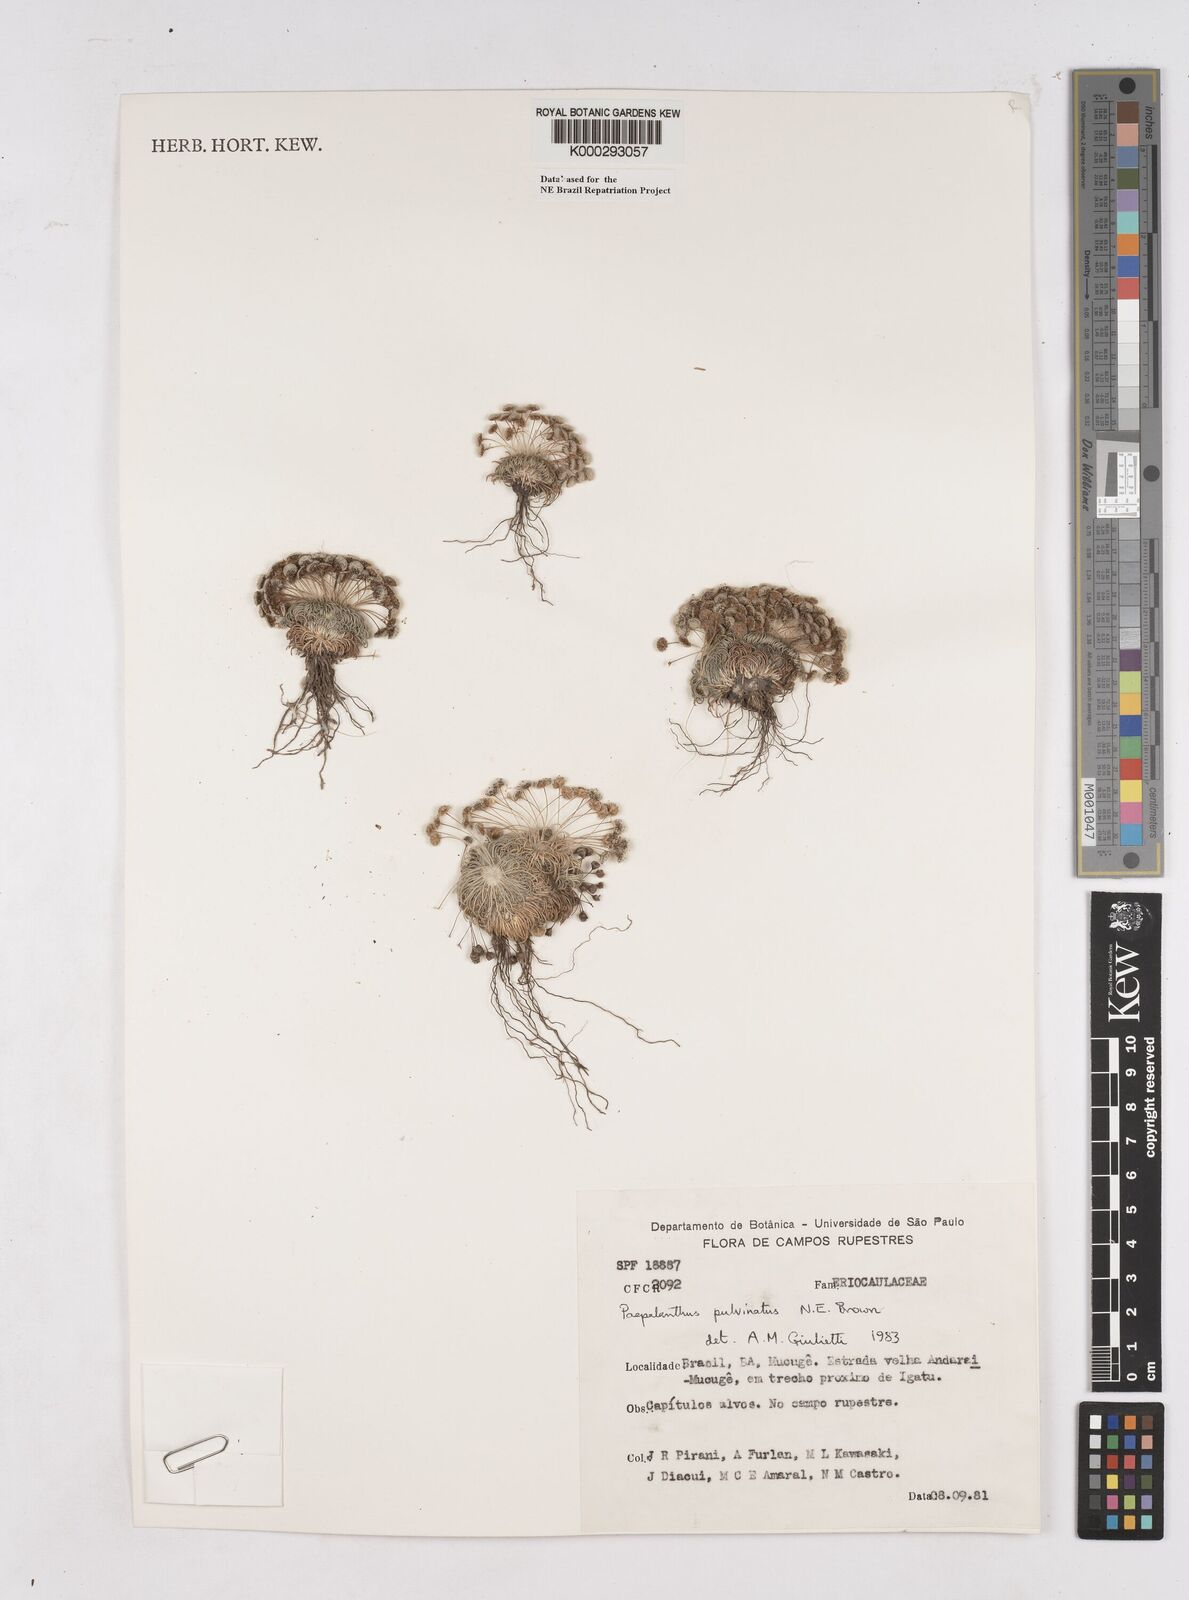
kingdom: Plantae
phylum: Tracheophyta
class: Liliopsida
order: Poales
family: Eriocaulaceae
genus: Paepalanthus
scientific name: Paepalanthus pulvinatus
